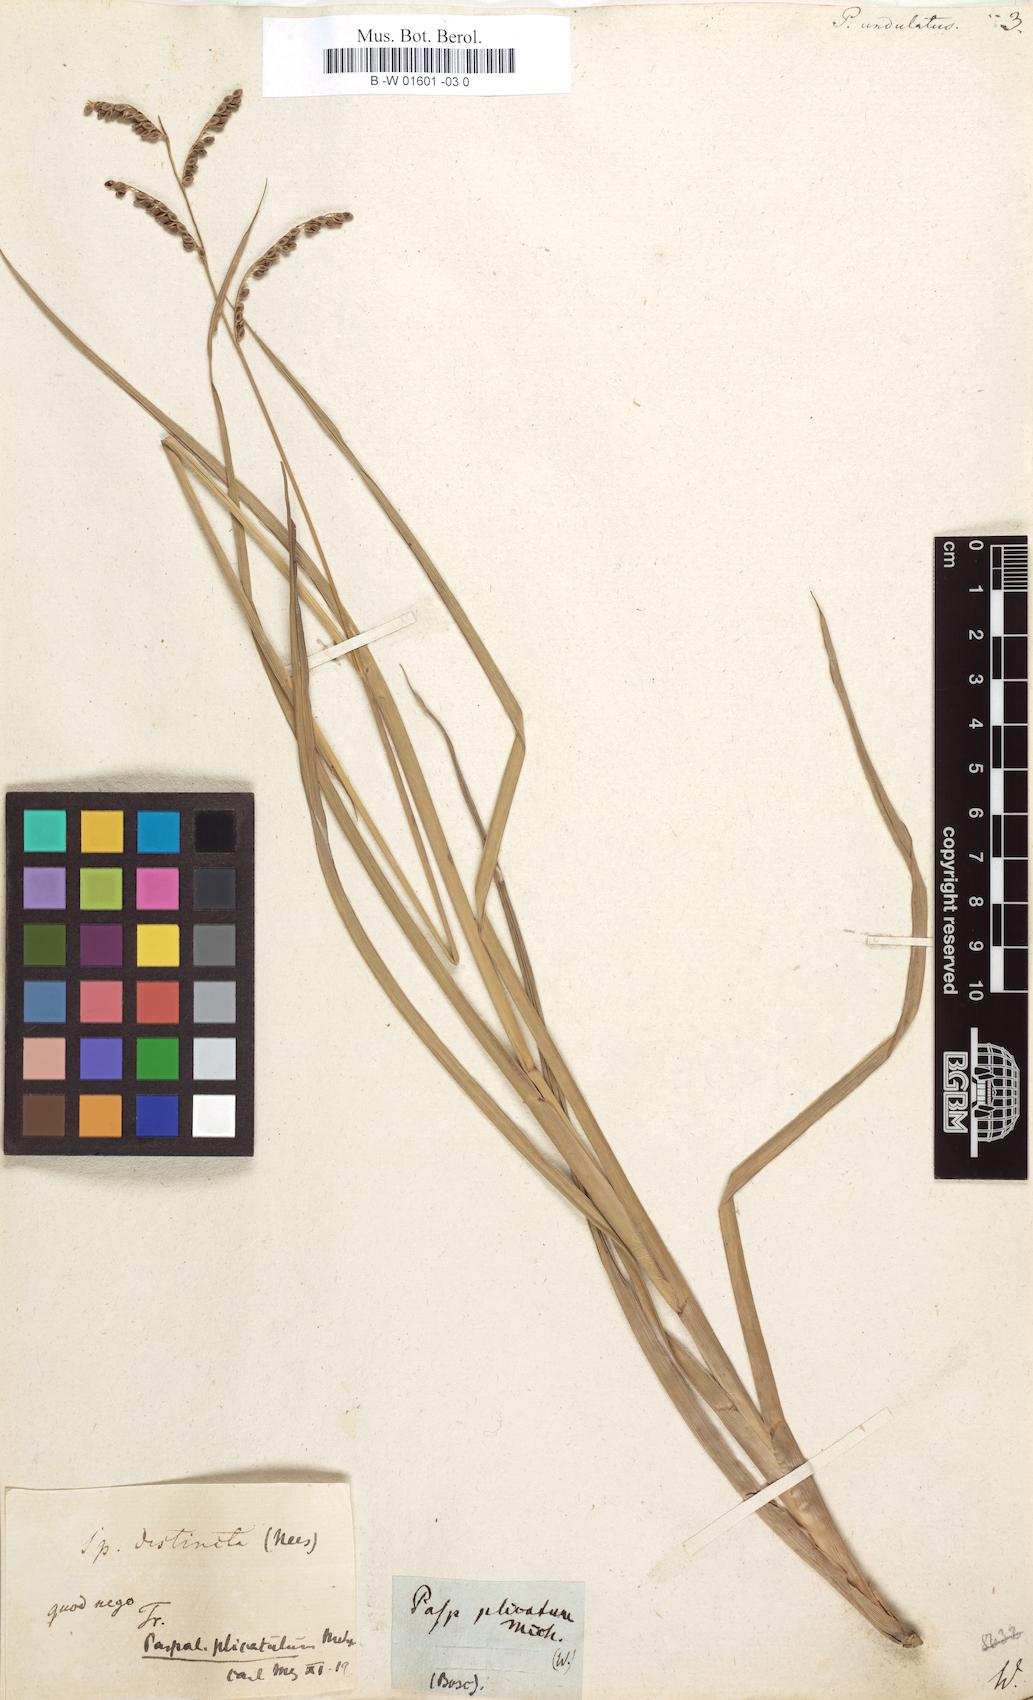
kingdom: Plantae
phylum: Tracheophyta
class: Liliopsida
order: Poales
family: Poaceae
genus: Paspalum
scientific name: Paspalum plicatulum
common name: Top paspalum
